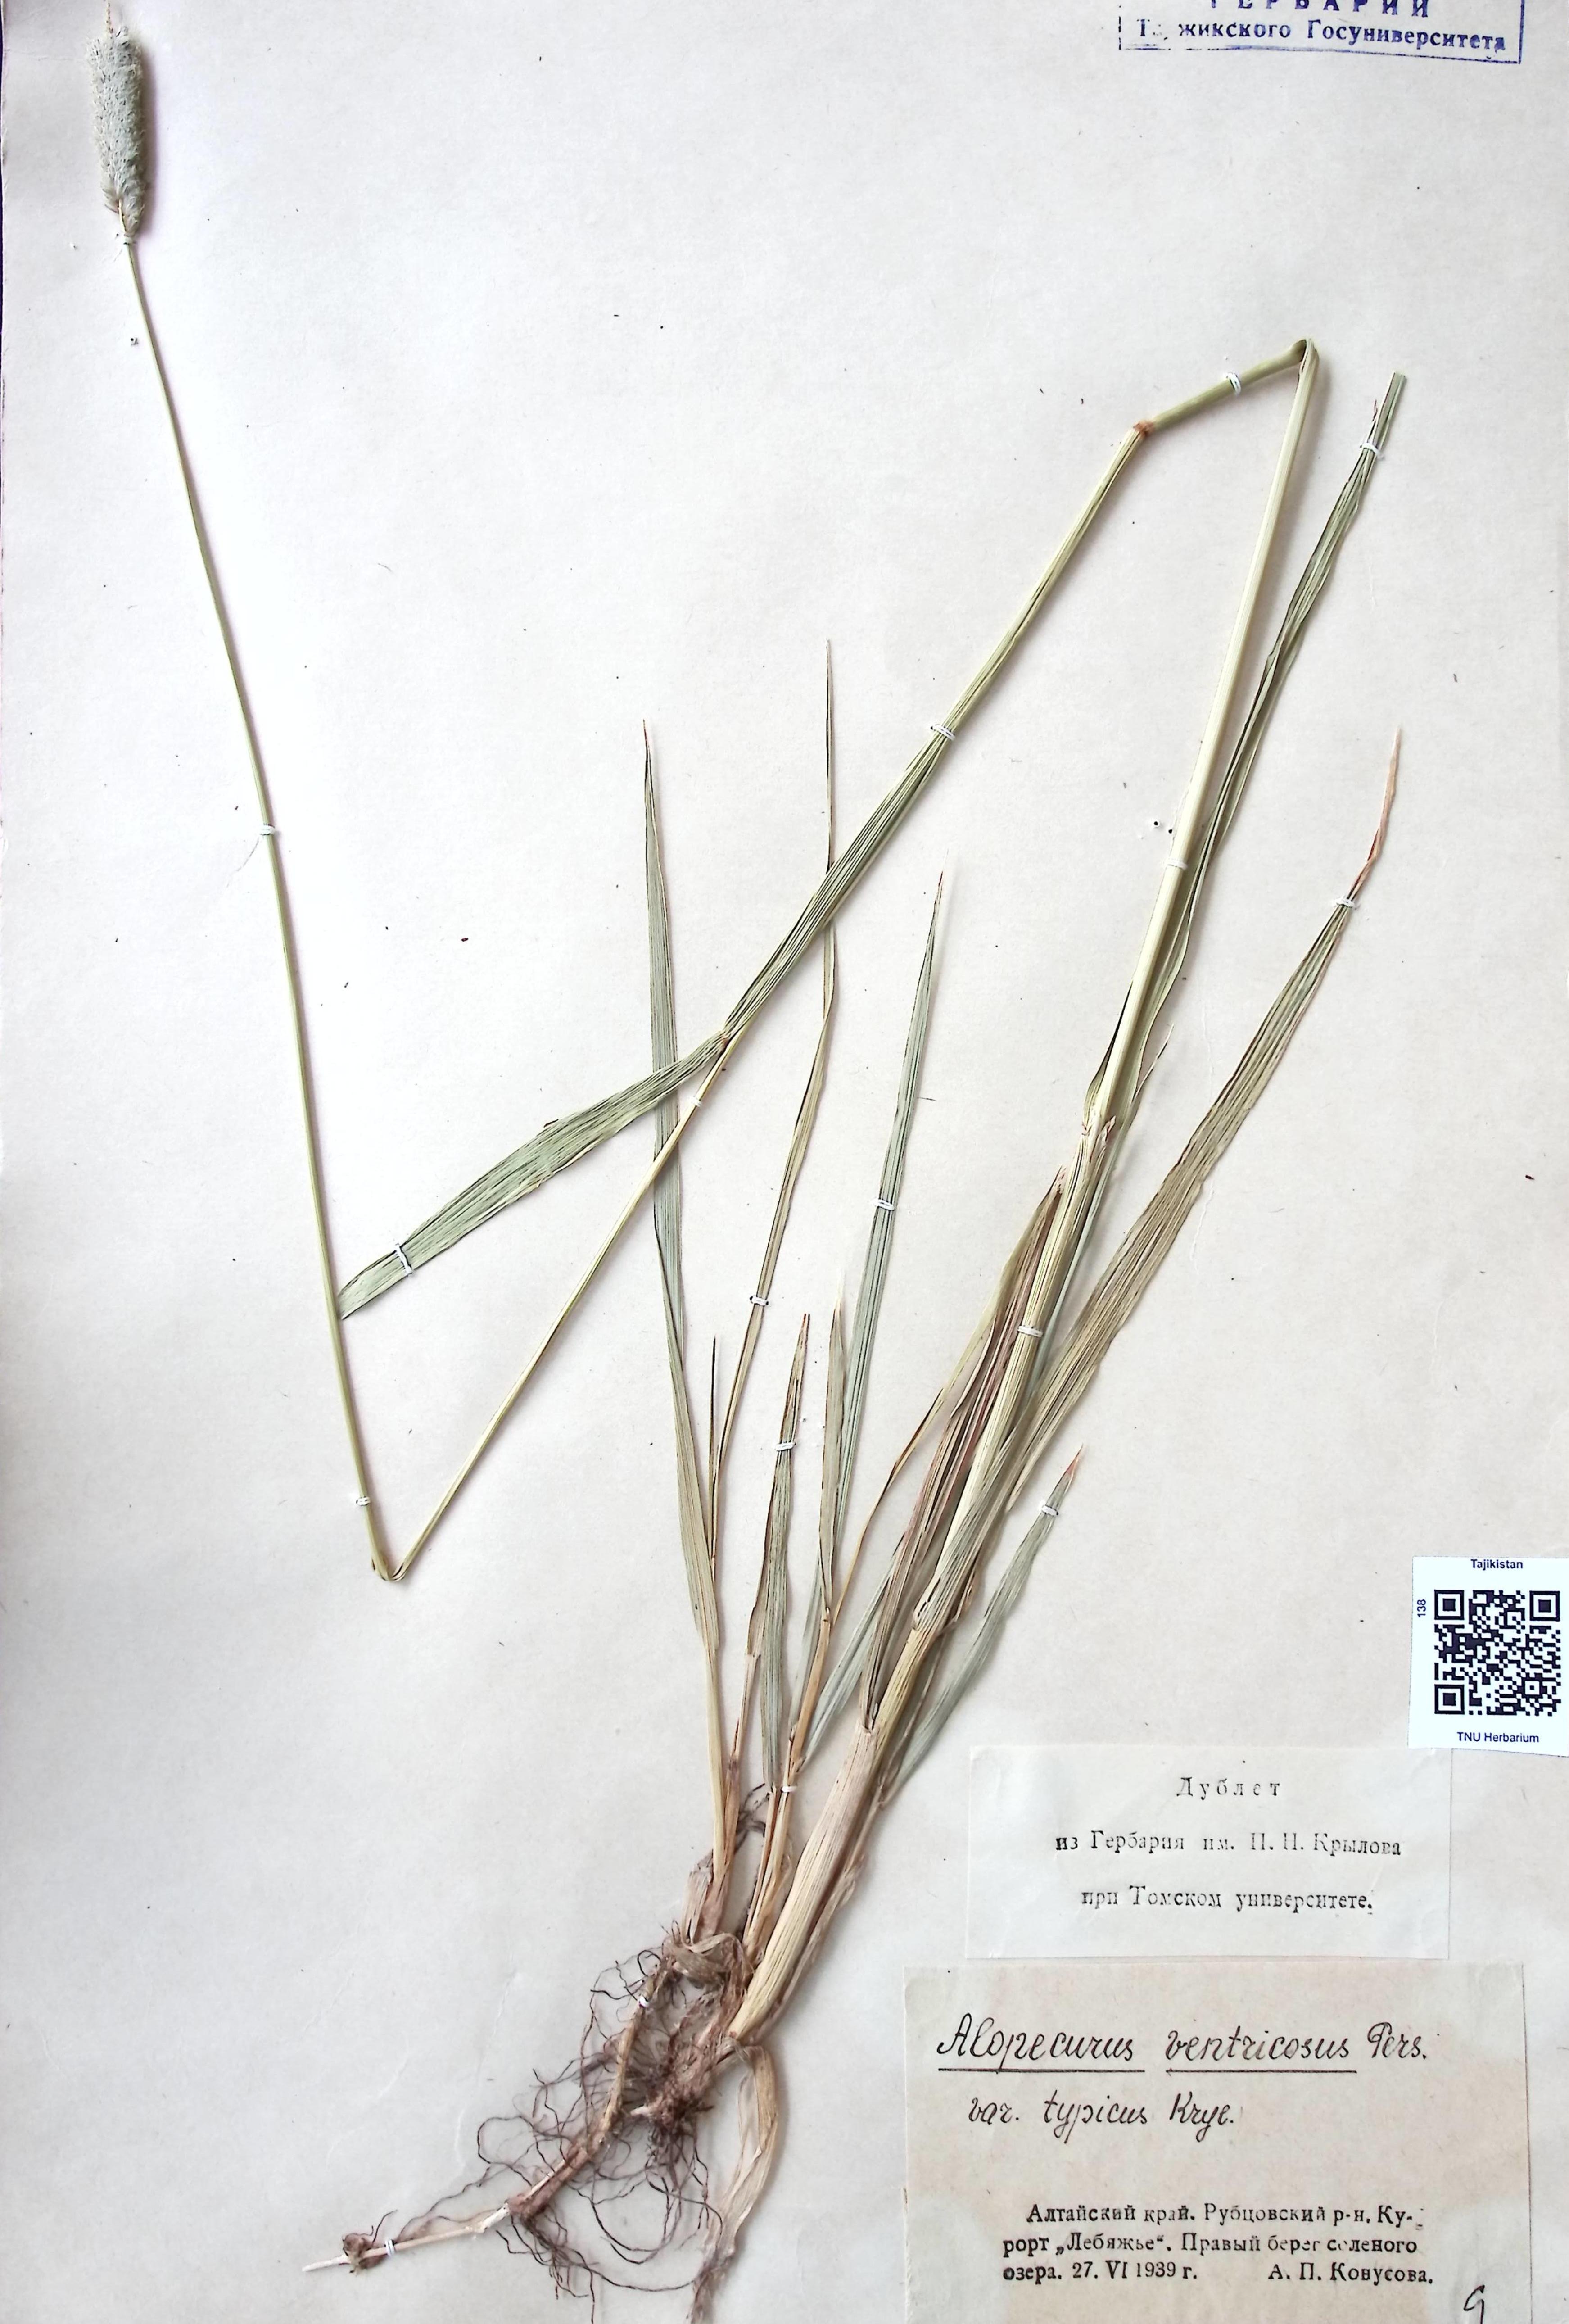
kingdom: Plantae
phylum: Tracheophyta
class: Liliopsida
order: Poales
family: Poaceae
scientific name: Poaceae
